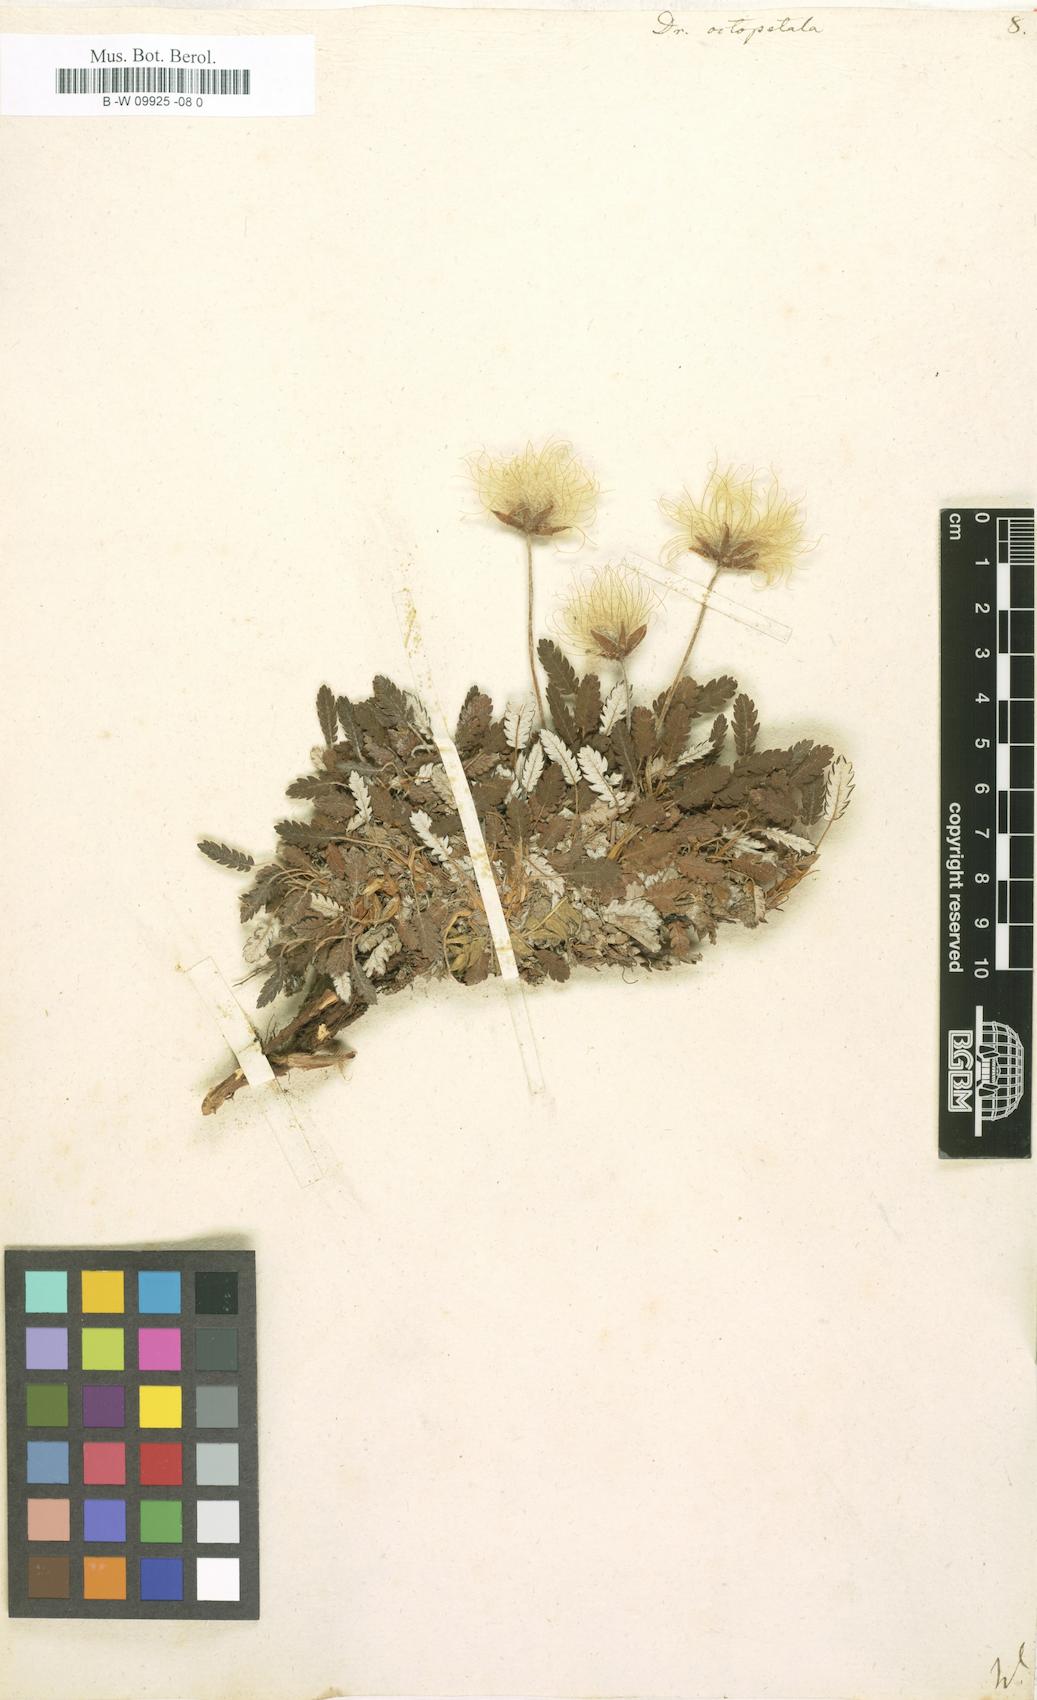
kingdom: Plantae
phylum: Tracheophyta
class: Magnoliopsida
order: Rosales
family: Rosaceae
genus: Dryas
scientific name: Dryas octopetala
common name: Eight-petal mountain-avens
